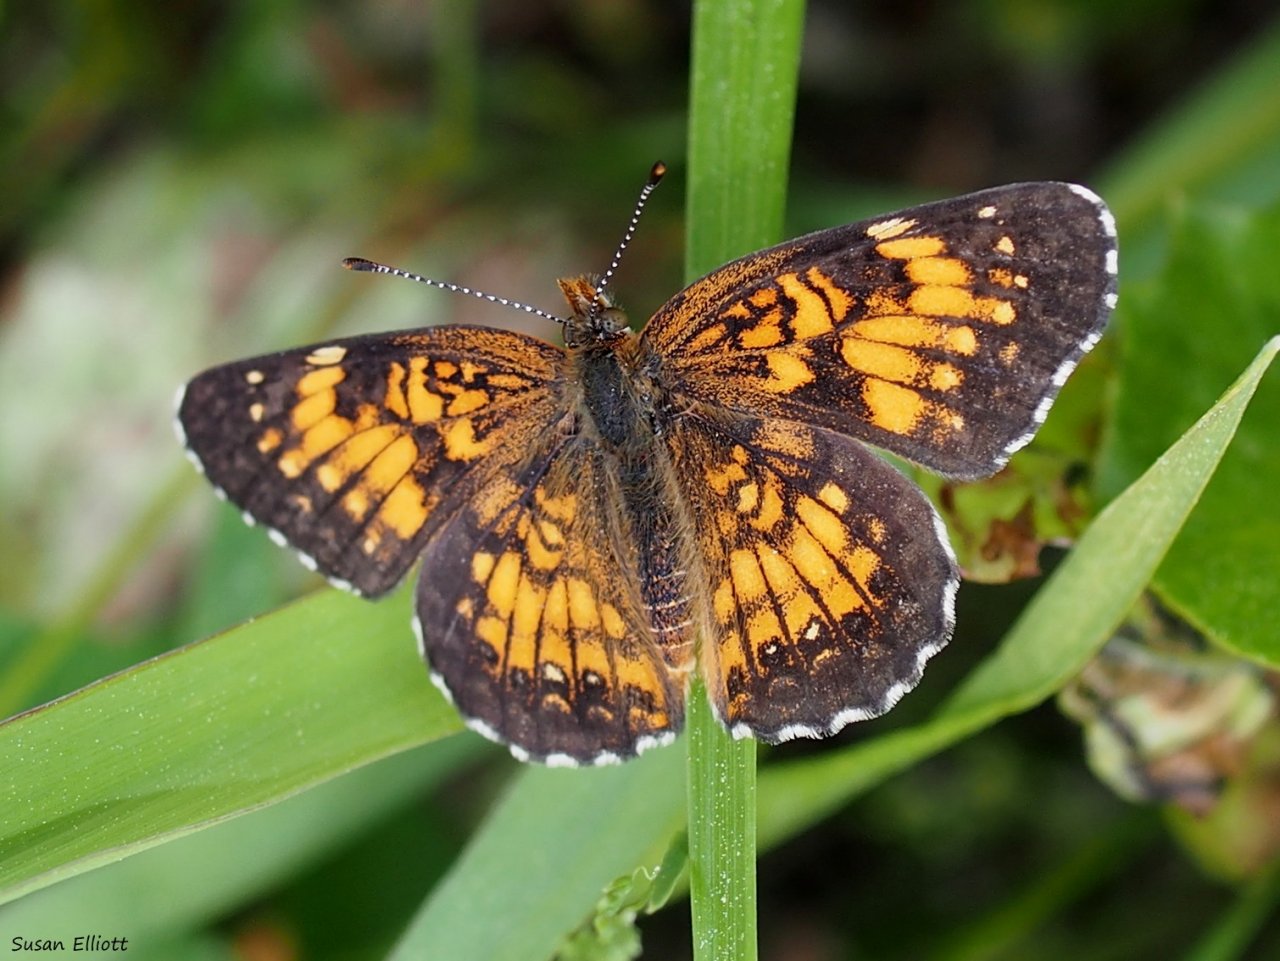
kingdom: Animalia
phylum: Arthropoda
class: Insecta
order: Lepidoptera
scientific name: Lepidoptera
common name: Butterflies
